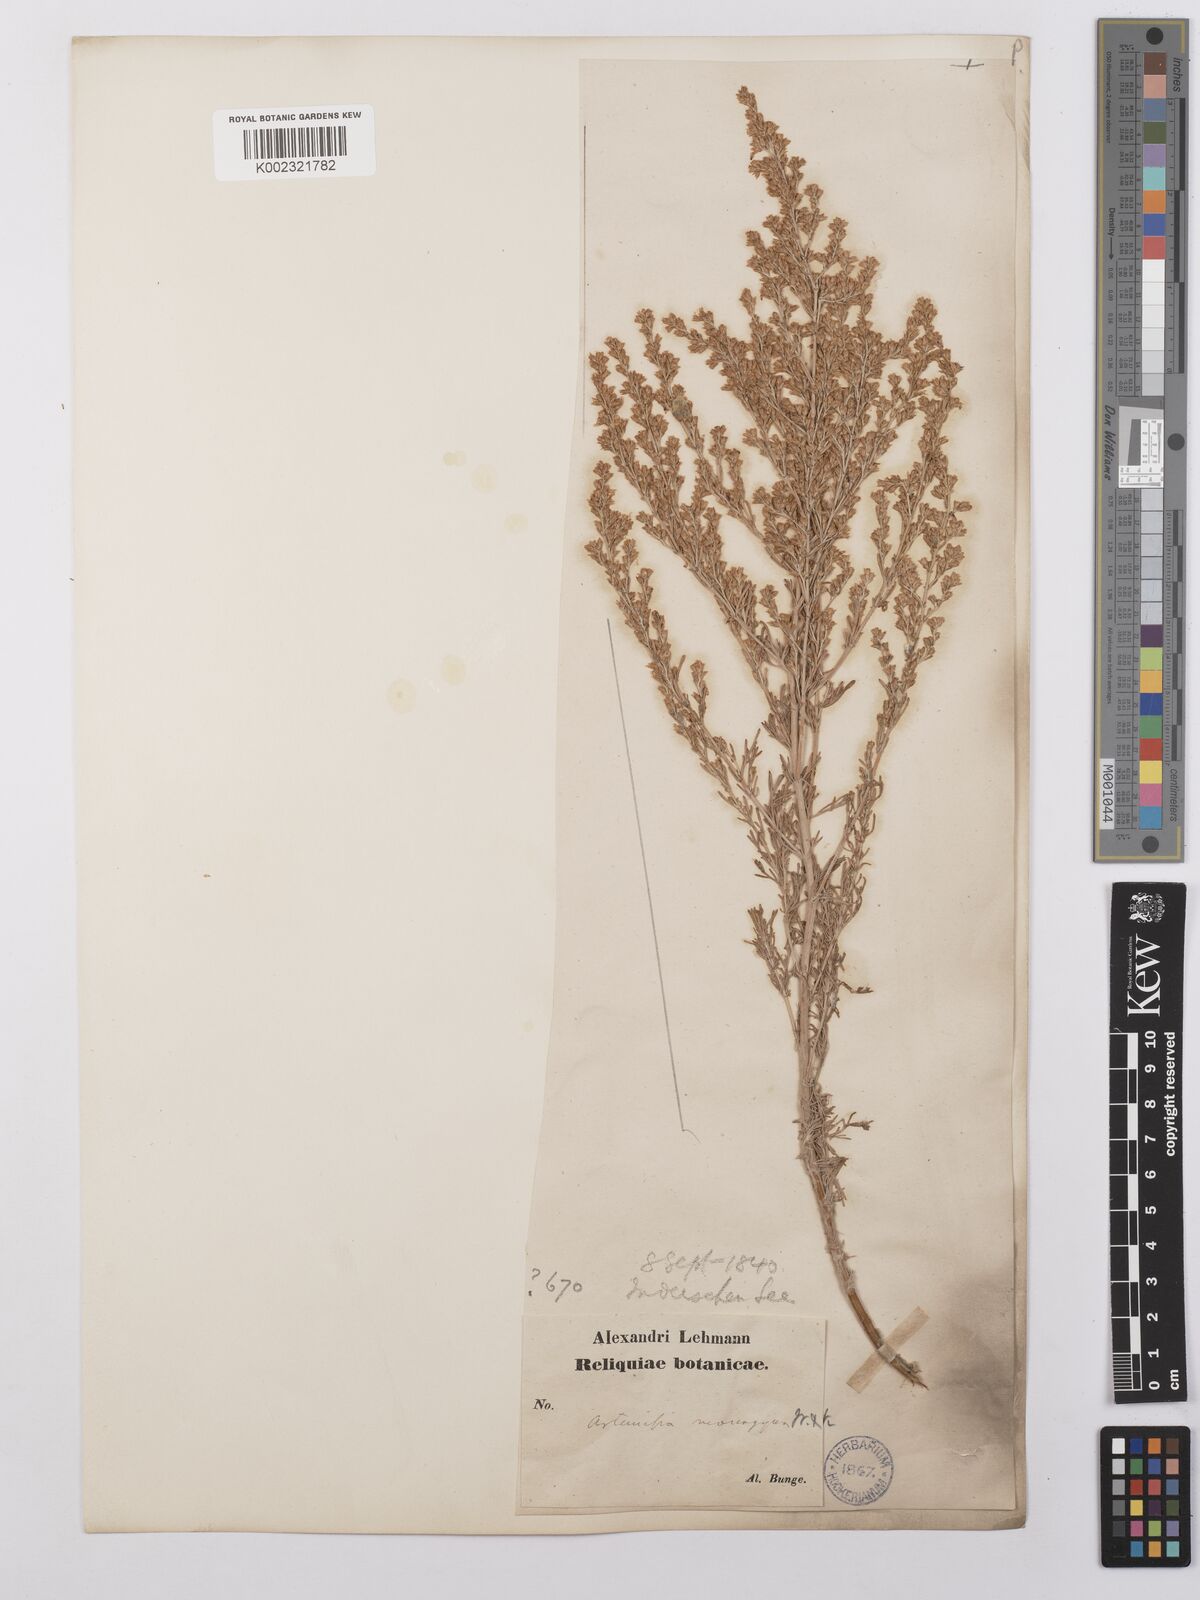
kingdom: Plantae
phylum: Tracheophyta
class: Magnoliopsida
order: Asterales
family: Asteraceae
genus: Artemisia
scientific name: Artemisia santonicum
